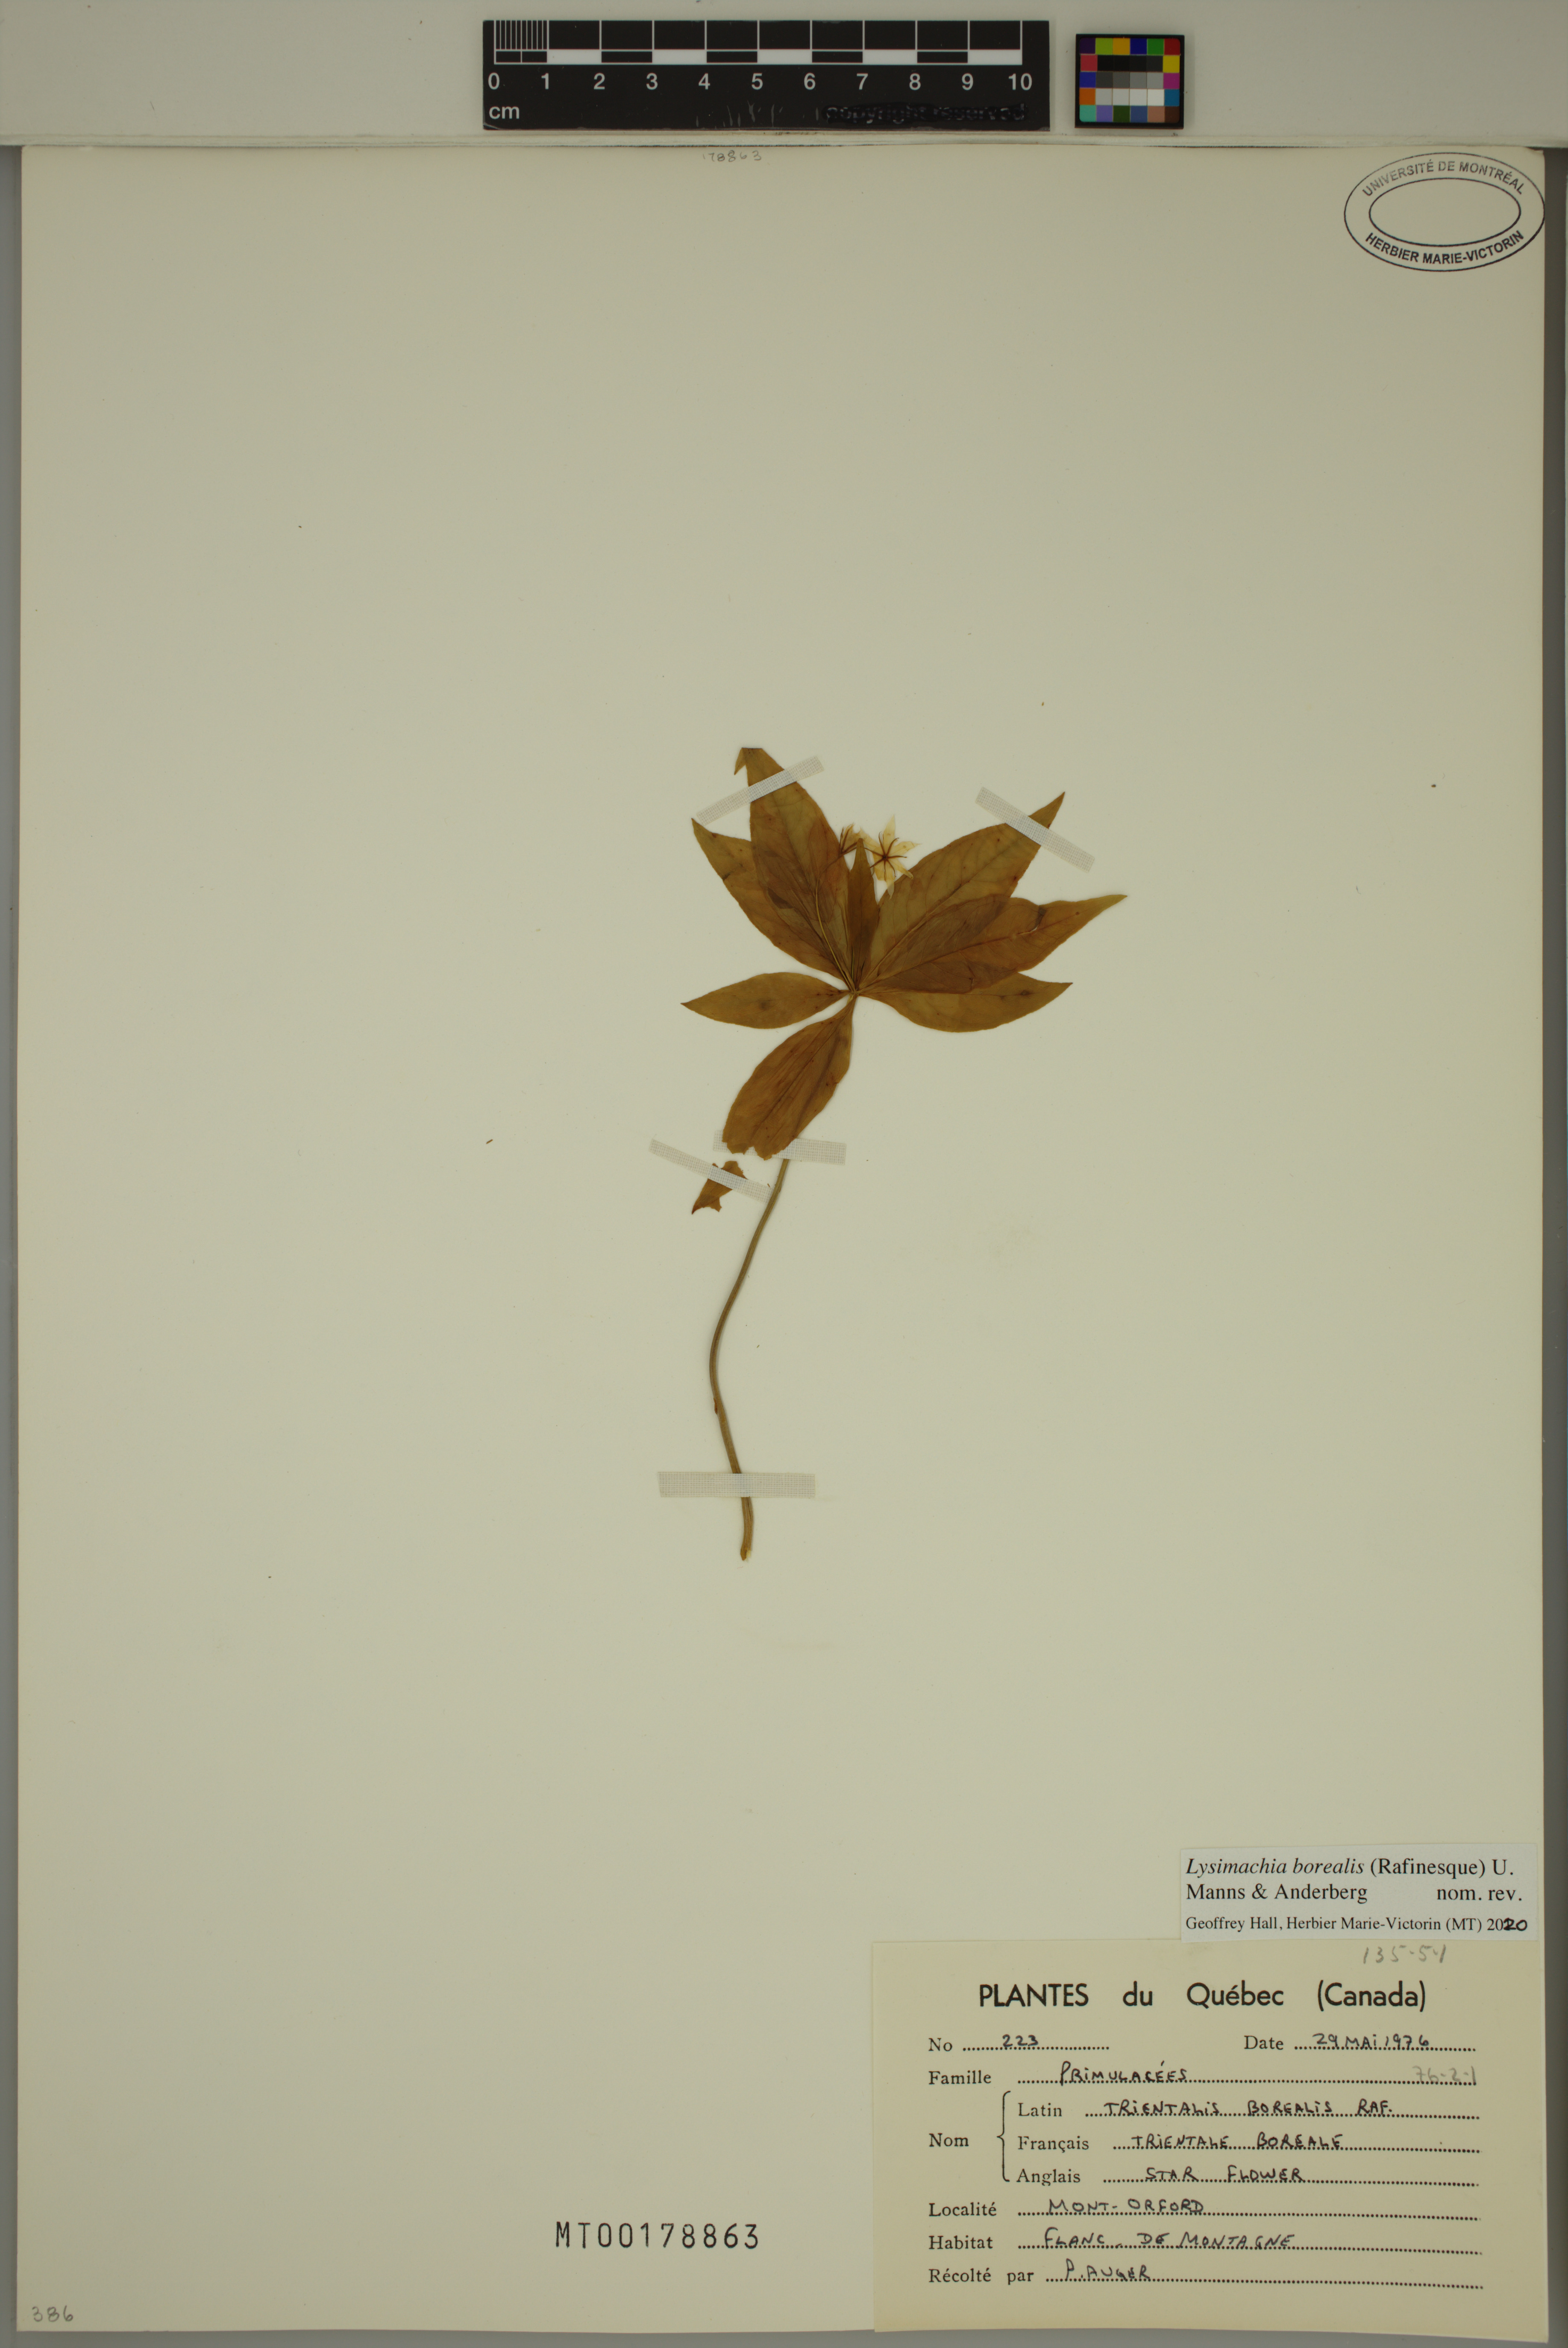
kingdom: Plantae
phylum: Tracheophyta
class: Magnoliopsida
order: Ericales
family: Primulaceae
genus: Lysimachia
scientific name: Lysimachia borealis
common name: American starflower
